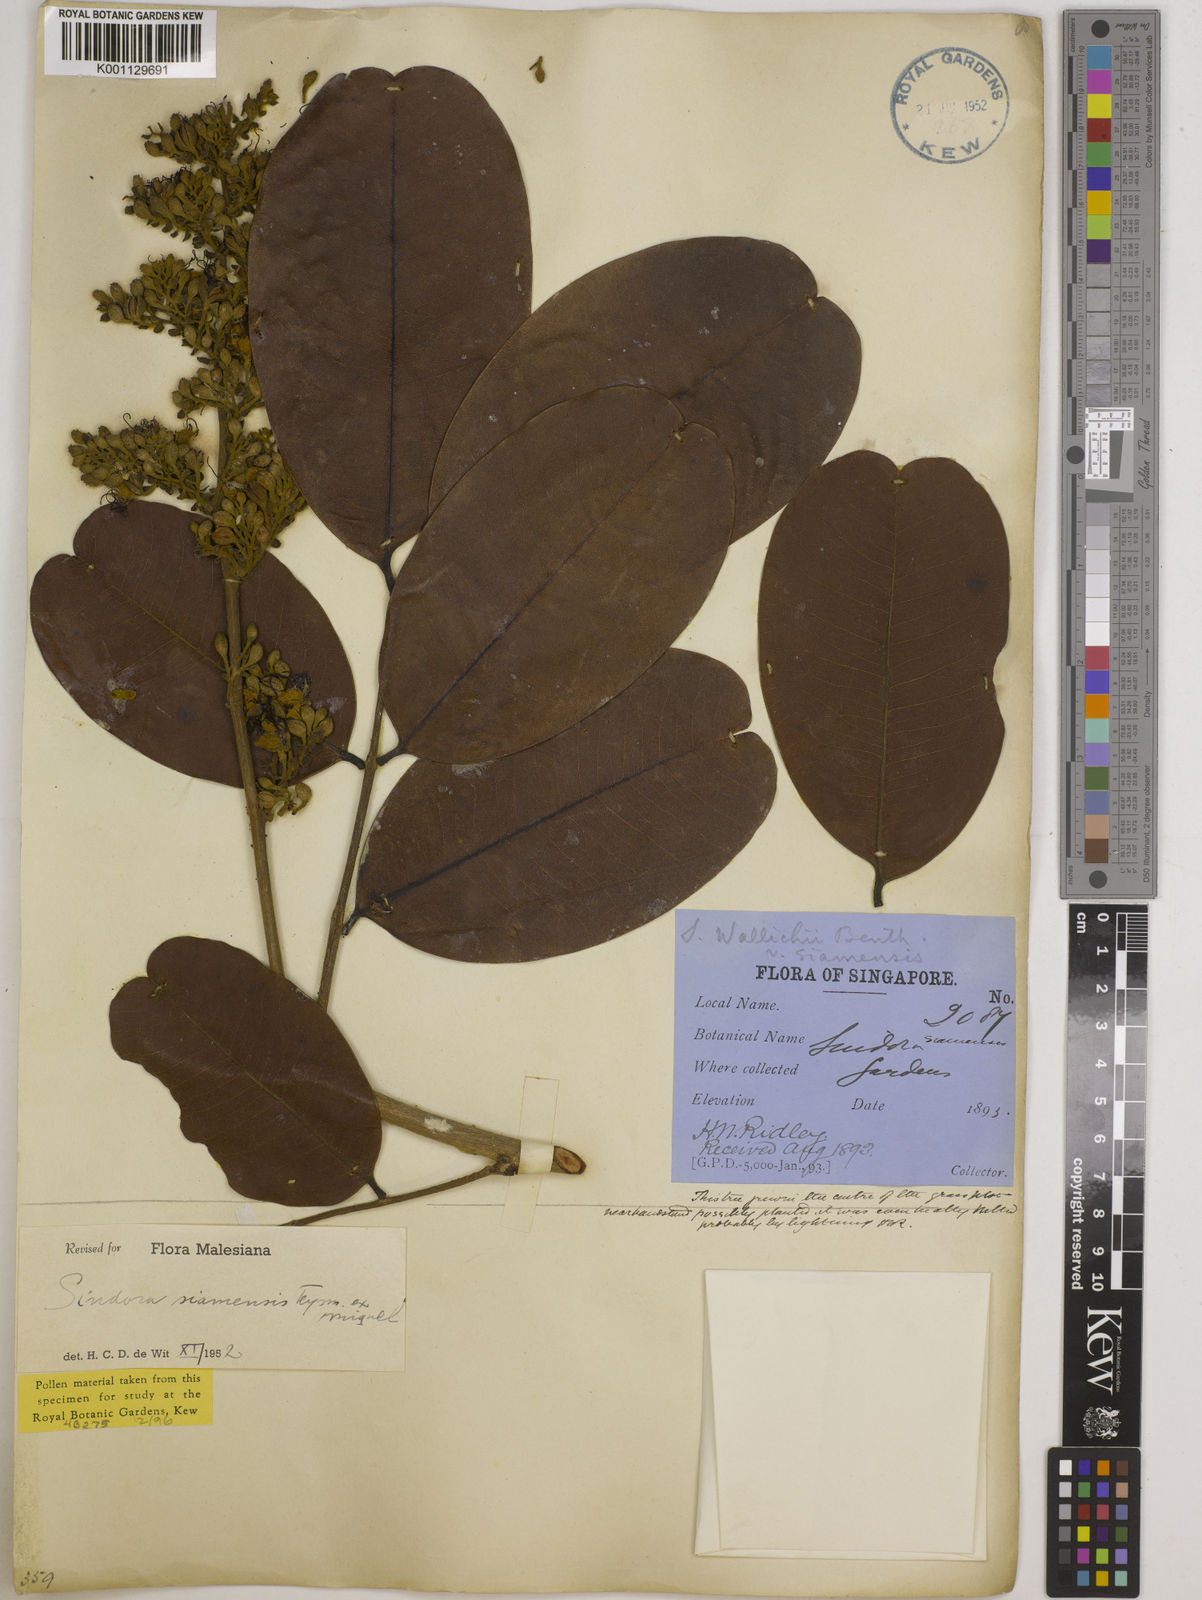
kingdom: Plantae
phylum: Tracheophyta
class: Magnoliopsida
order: Fabales
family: Fabaceae
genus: Sindora
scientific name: Sindora siamensis
